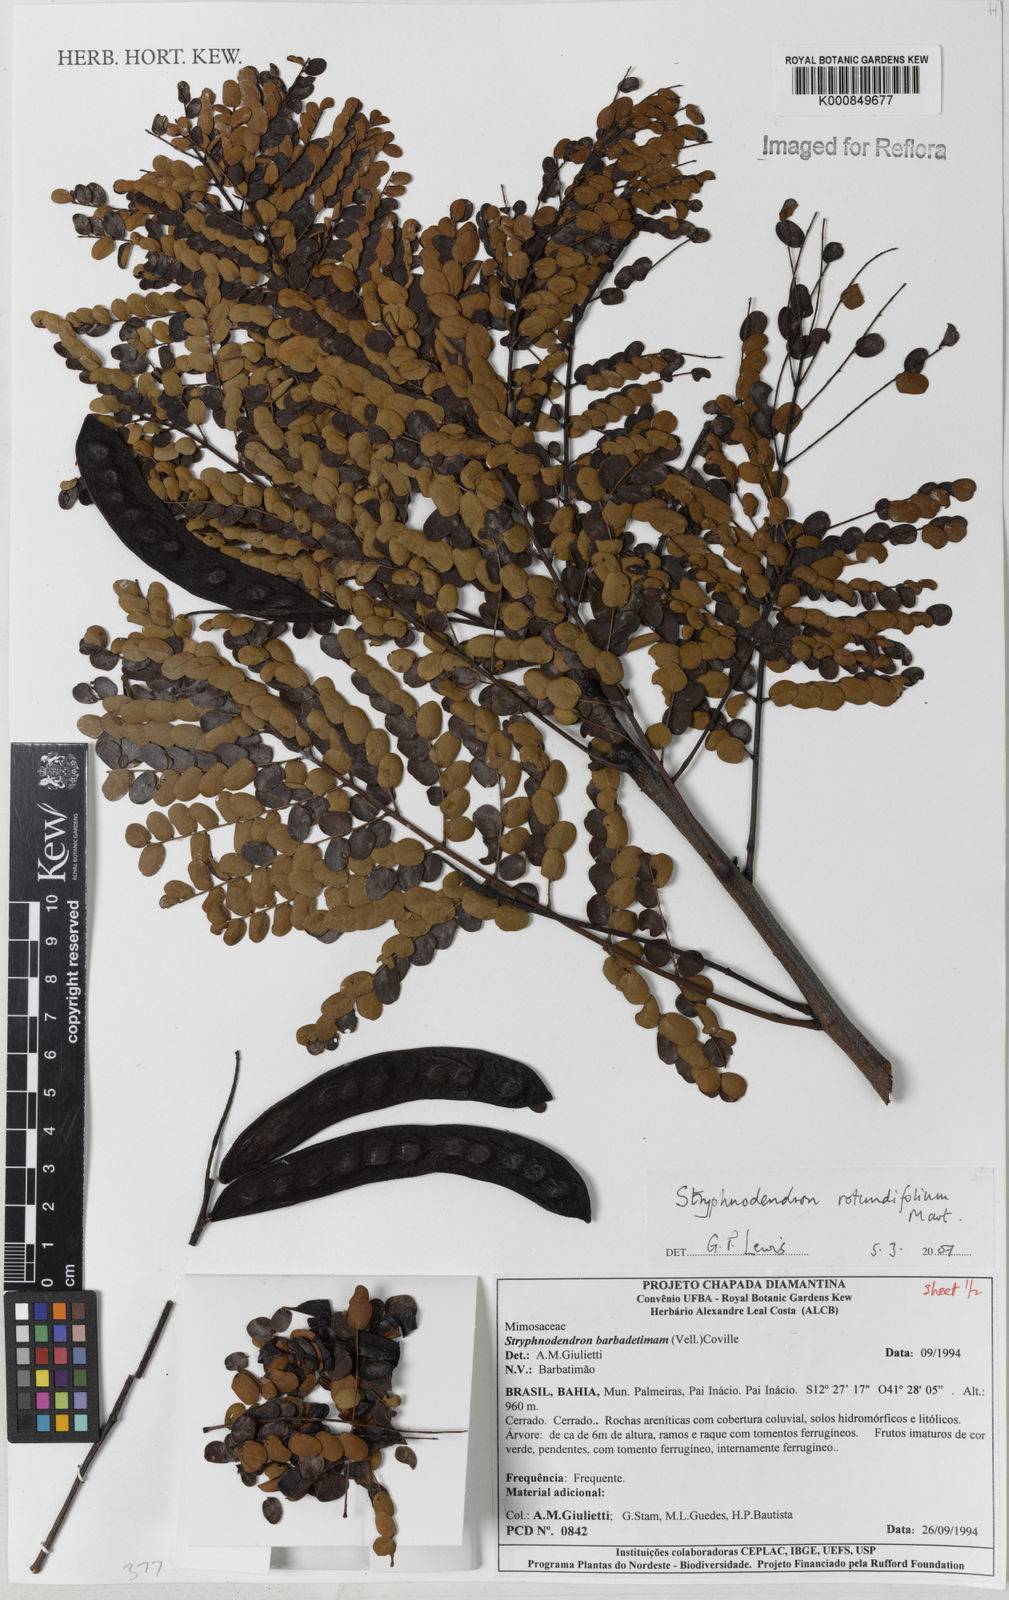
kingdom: Plantae
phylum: Tracheophyta
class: Magnoliopsida
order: Fabales
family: Fabaceae
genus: Stryphnodendron
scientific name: Stryphnodendron rotundifolium
